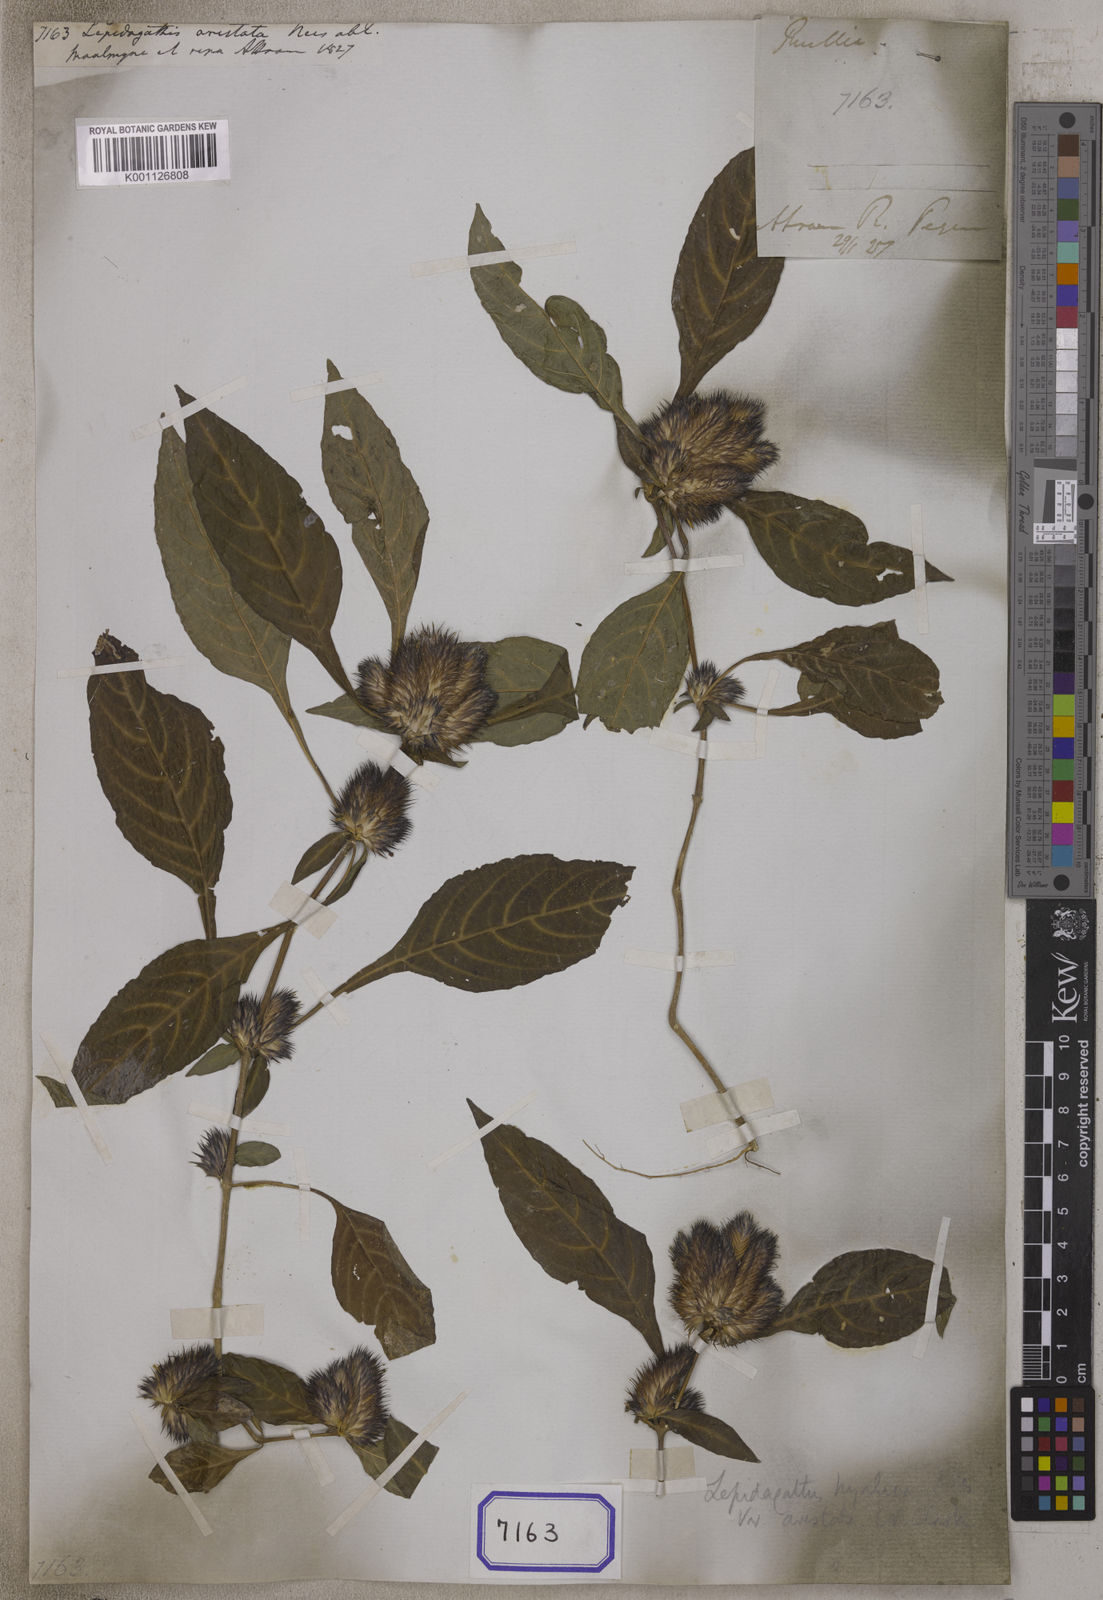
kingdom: Plantae
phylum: Tracheophyta
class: Magnoliopsida
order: Lamiales
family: Acanthaceae
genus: Lepidagathis
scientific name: Lepidagathis
